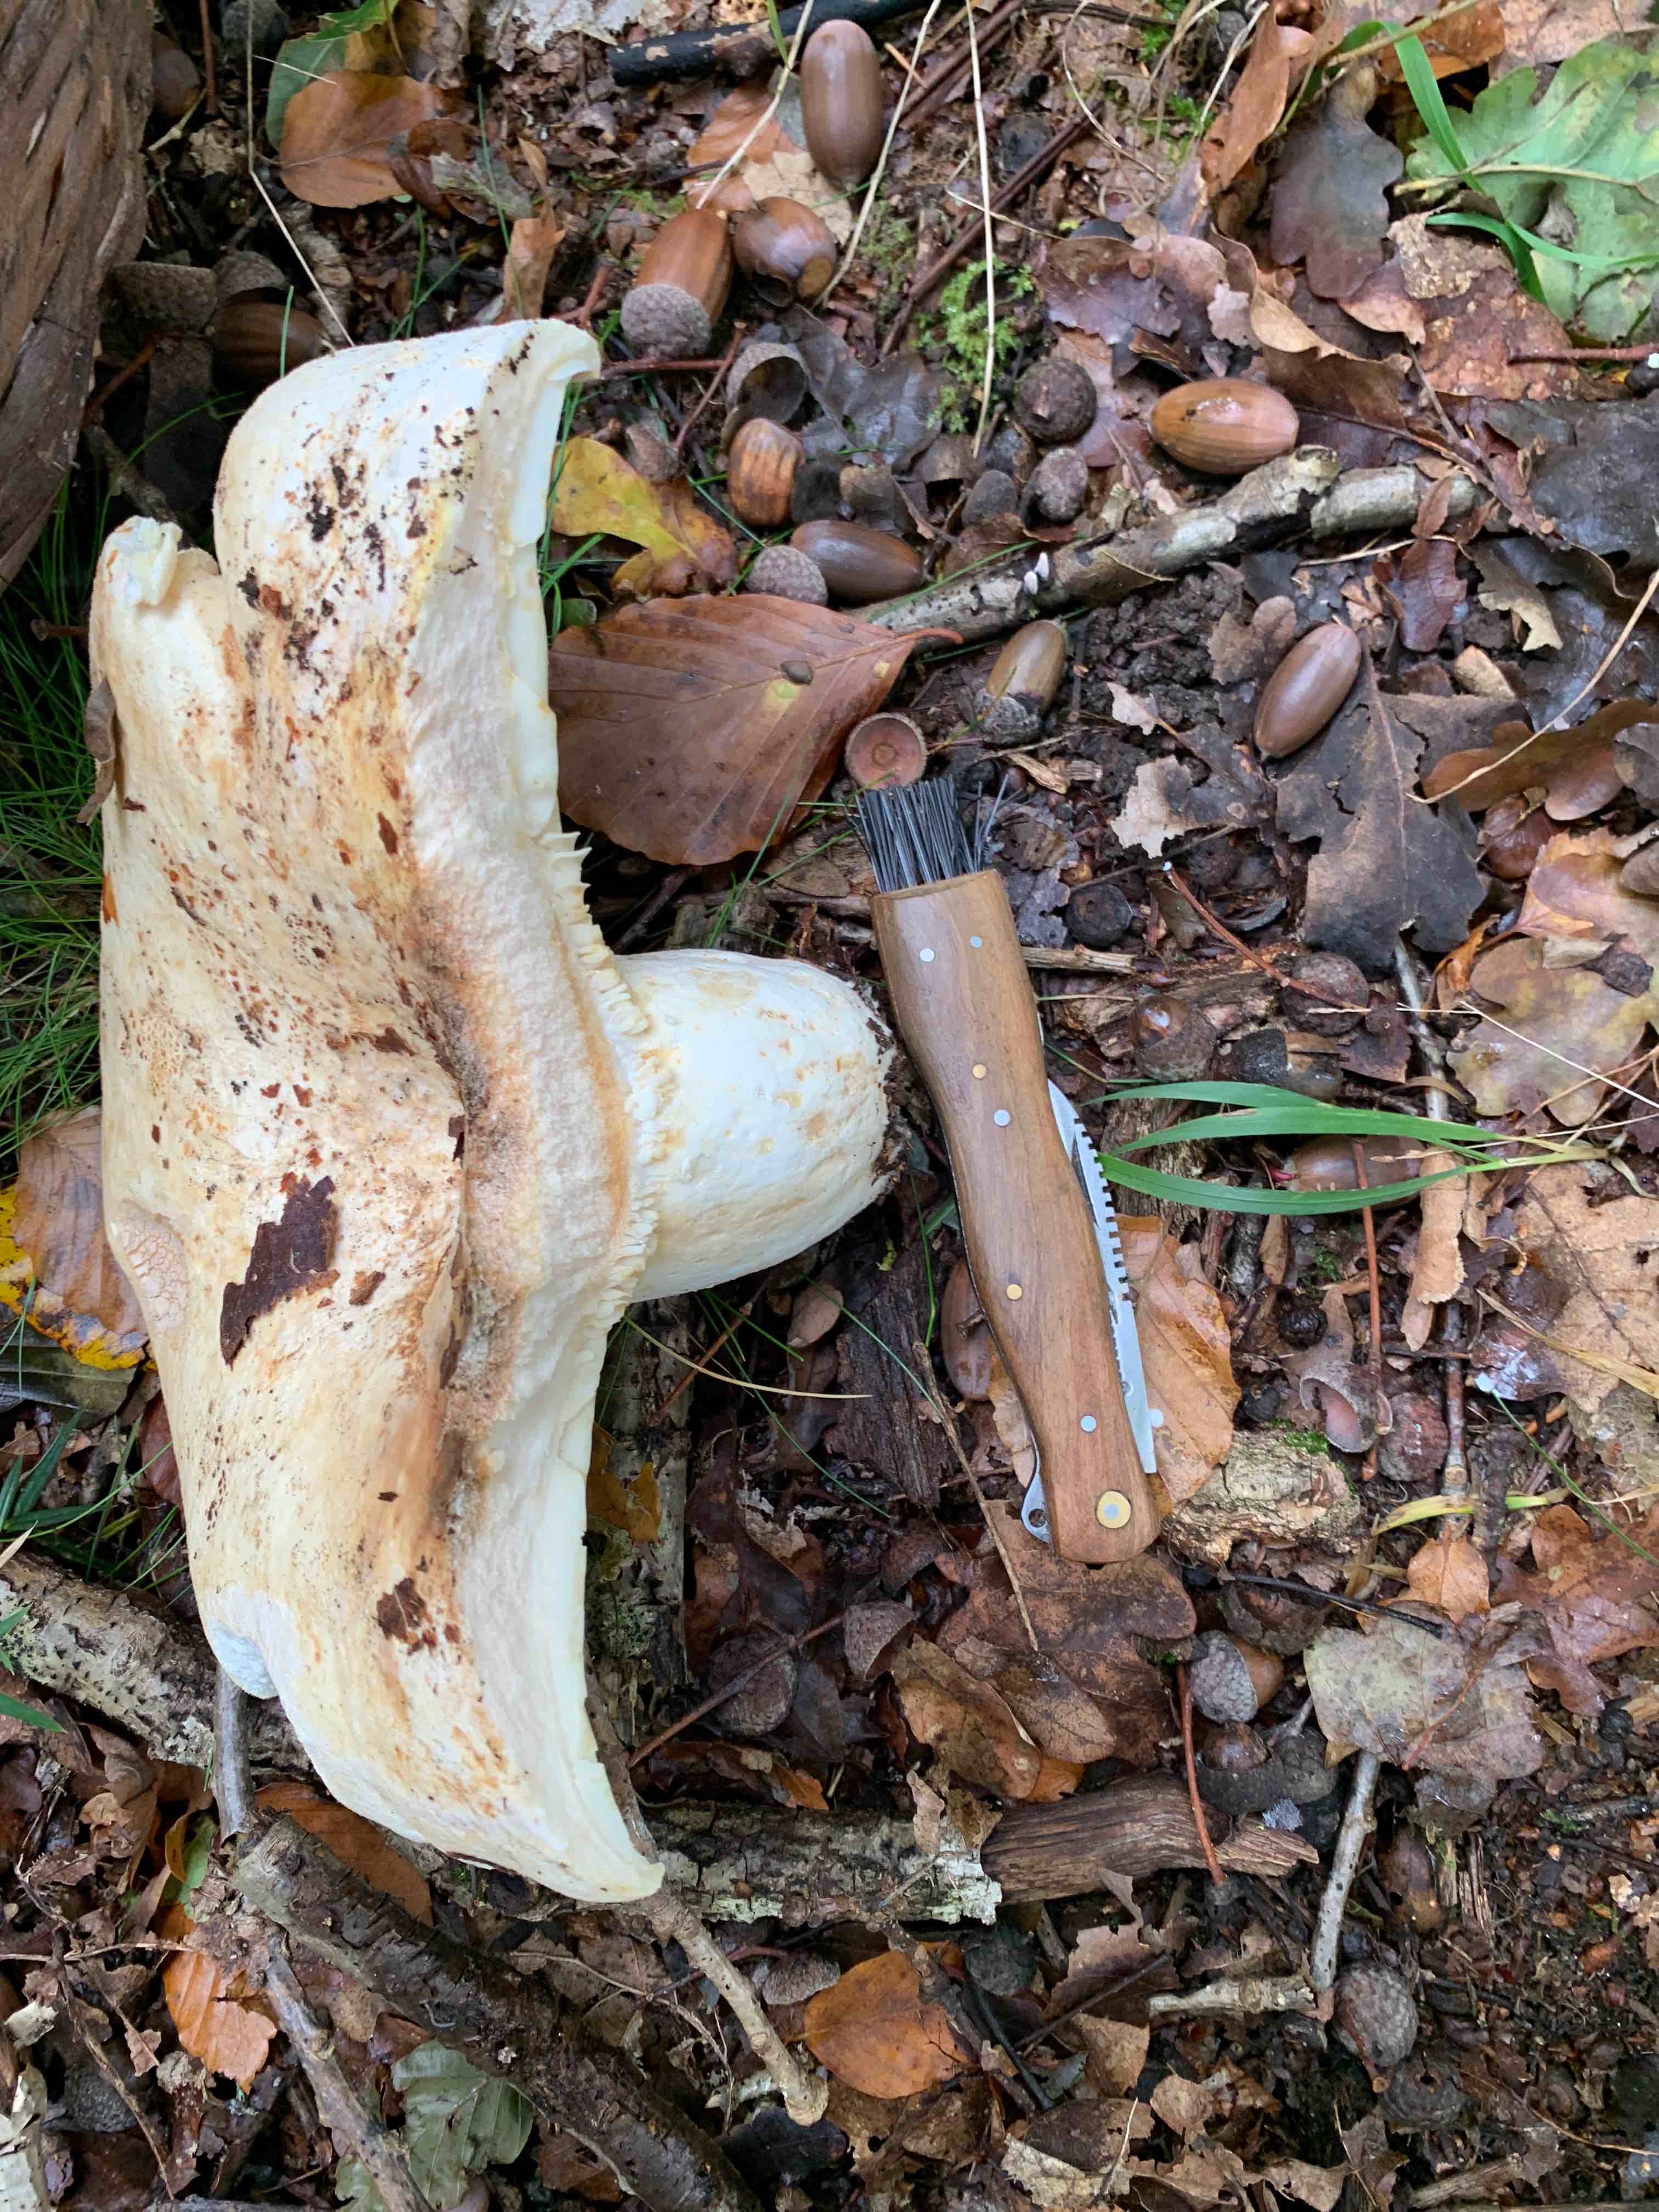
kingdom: Fungi
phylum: Basidiomycota
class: Agaricomycetes
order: Russulales
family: Russulaceae
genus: Lactifluus
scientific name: Lactifluus vellereus
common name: hvidfiltet mælkehat
